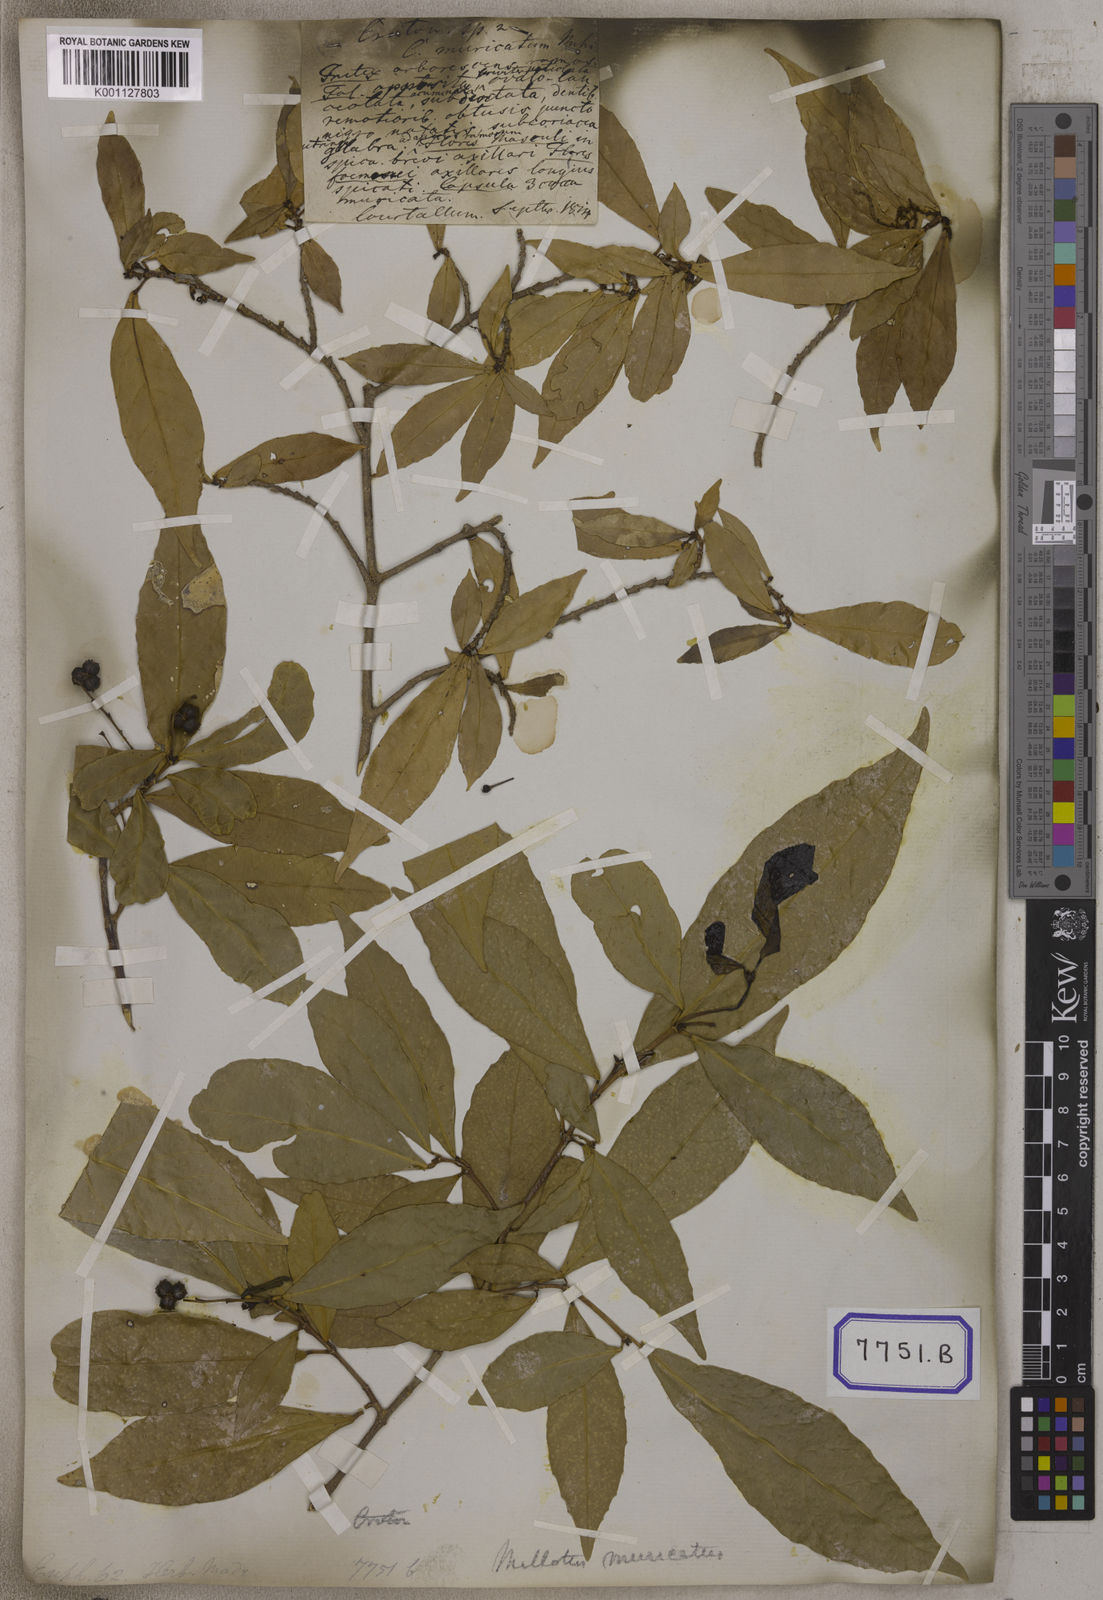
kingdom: Plantae
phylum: Tracheophyta
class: Magnoliopsida
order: Malpighiales
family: Euphorbiaceae
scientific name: Euphorbiaceae
